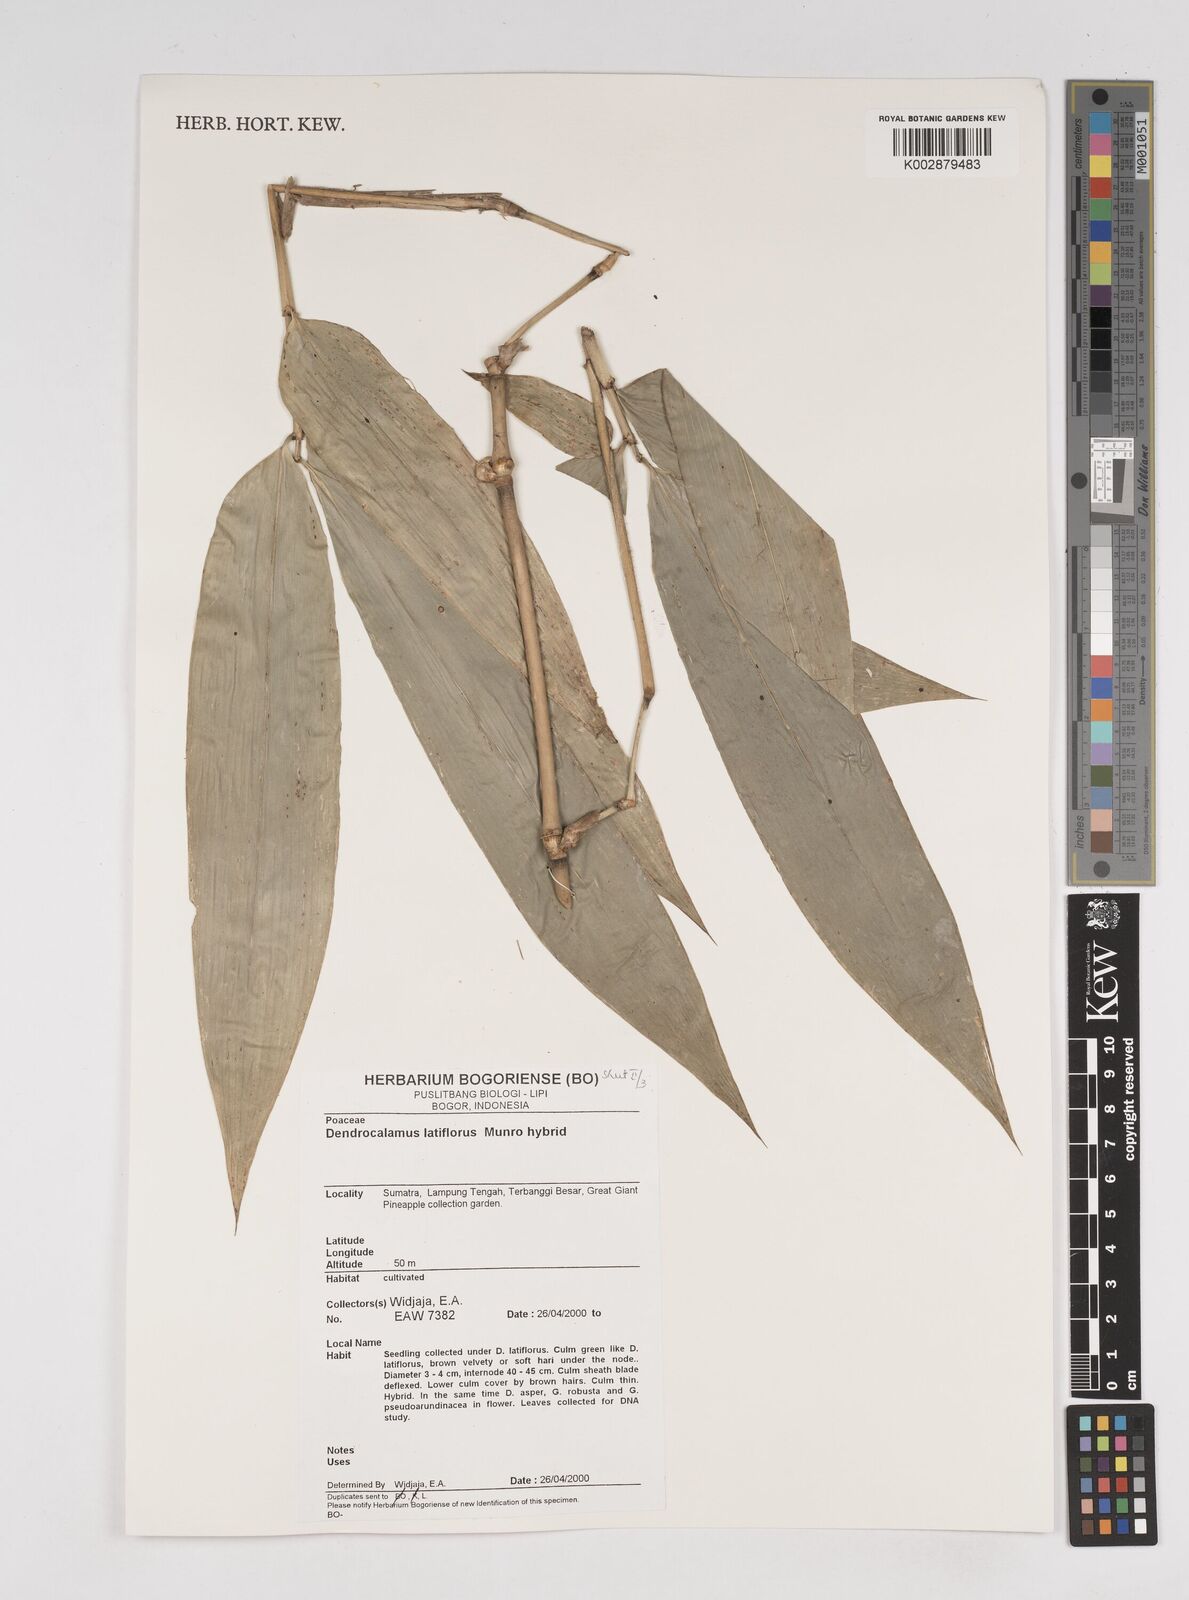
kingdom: Plantae
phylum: Tracheophyta
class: Liliopsida
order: Poales
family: Poaceae
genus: Dendrocalamus
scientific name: Dendrocalamus latiflorus
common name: Giant bamboo
